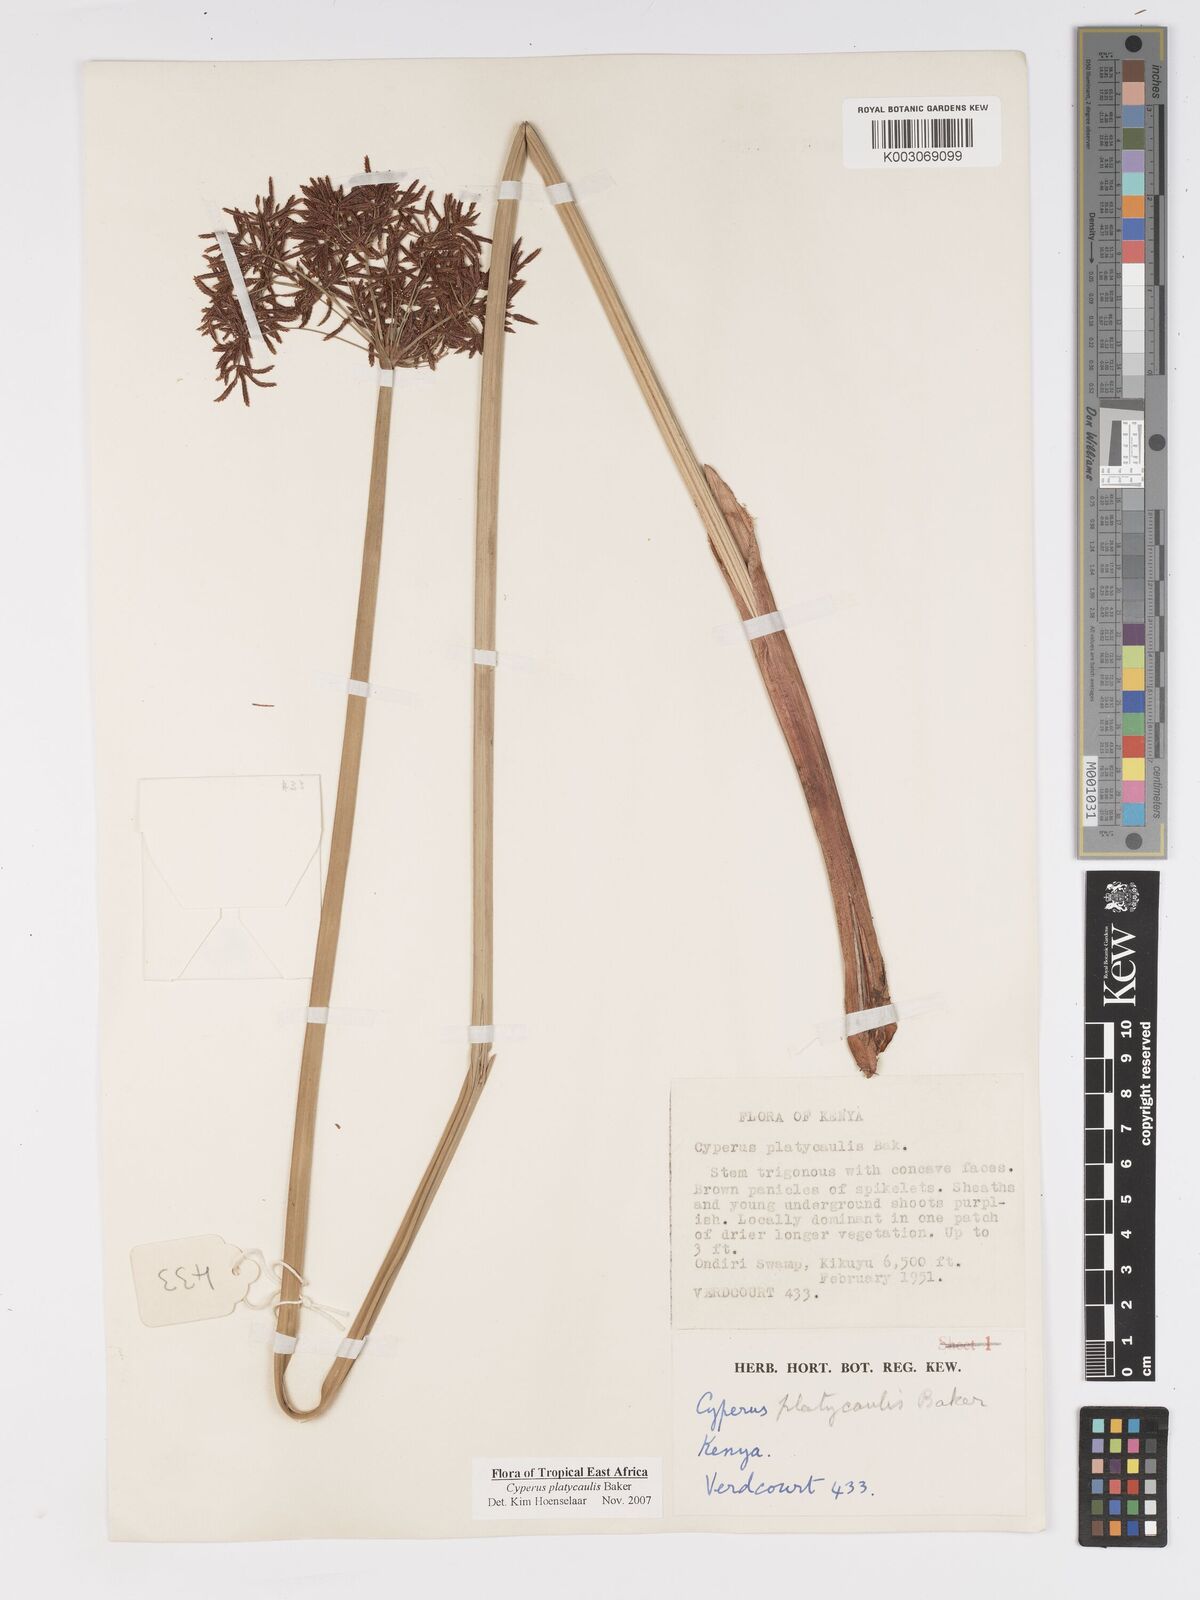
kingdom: Plantae
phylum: Tracheophyta
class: Liliopsida
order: Poales
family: Cyperaceae
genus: Cyperus
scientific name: Cyperus platycaulis
